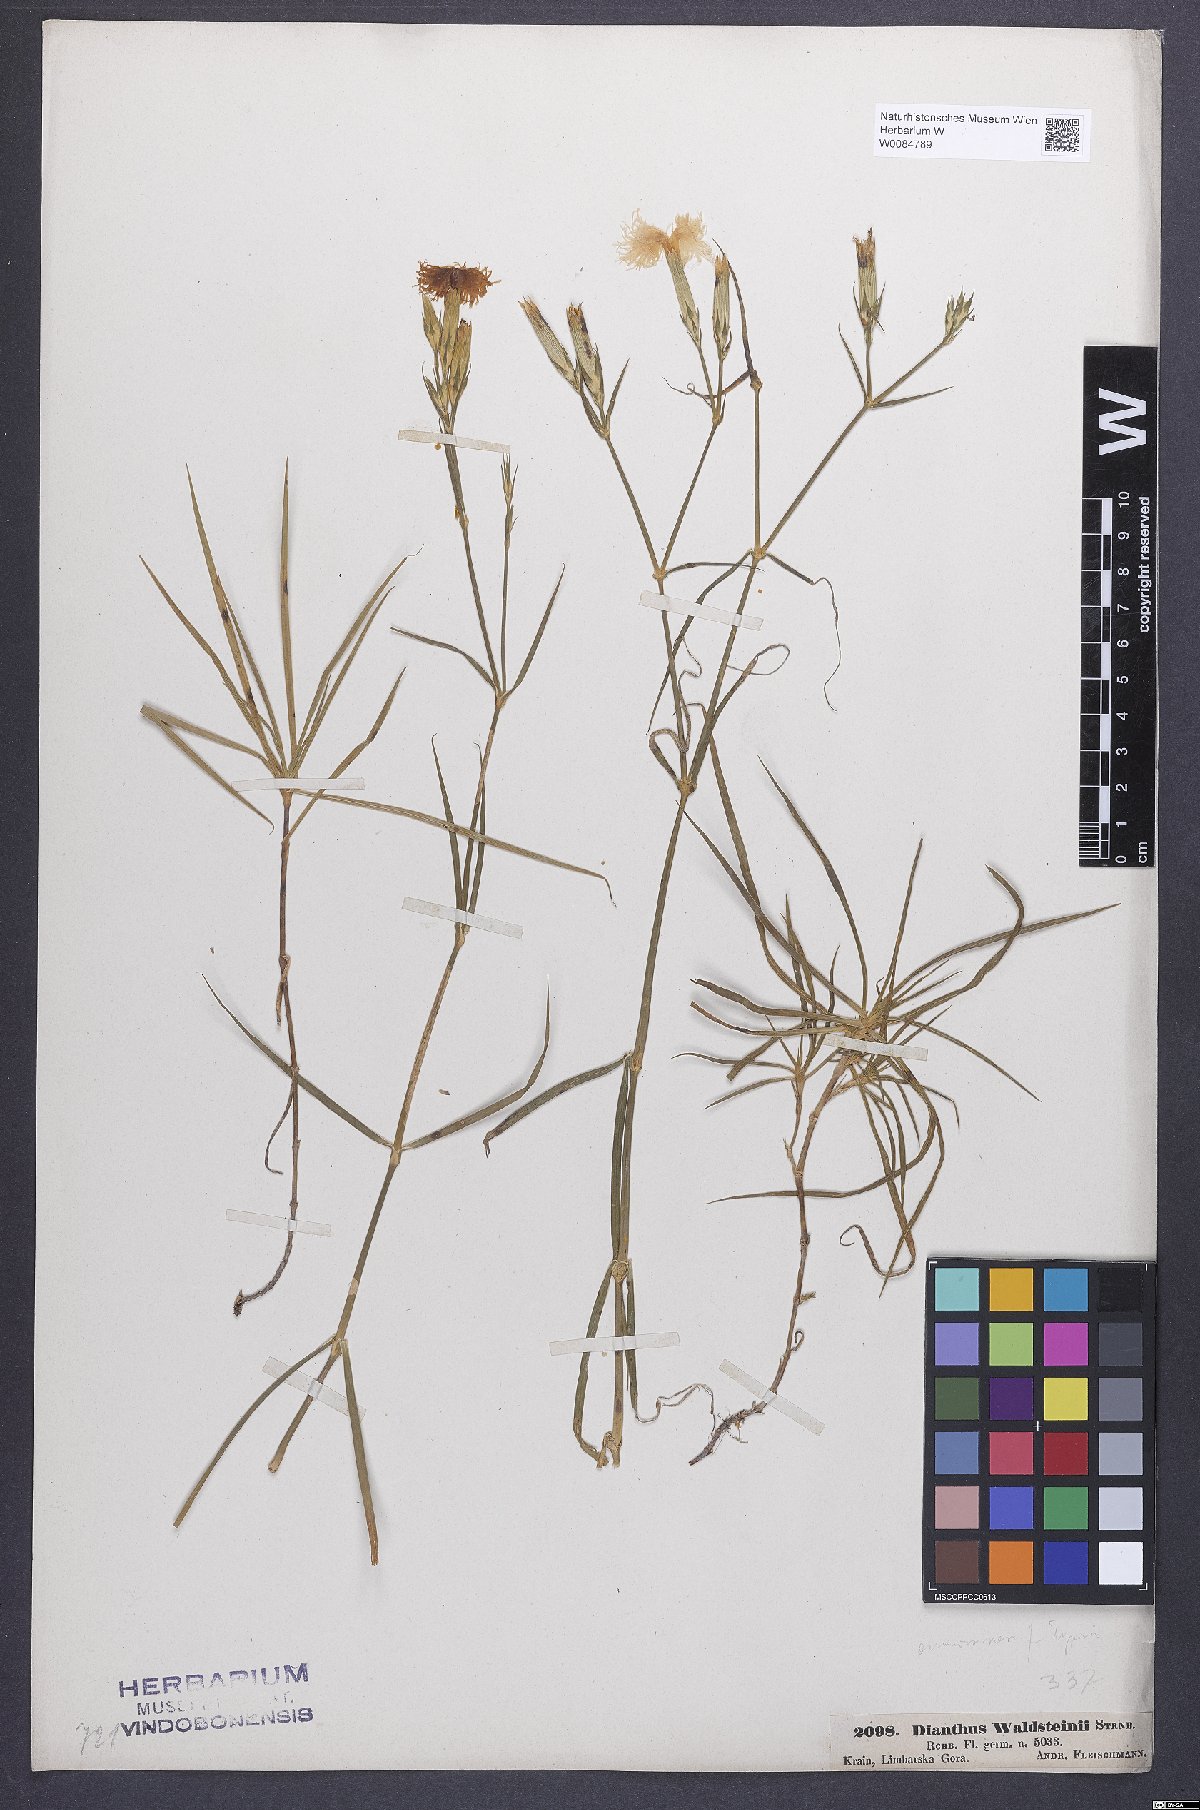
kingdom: Plantae
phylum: Tracheophyta
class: Magnoliopsida
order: Caryophyllales
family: Caryophyllaceae
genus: Dianthus
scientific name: Dianthus monspessulanus
